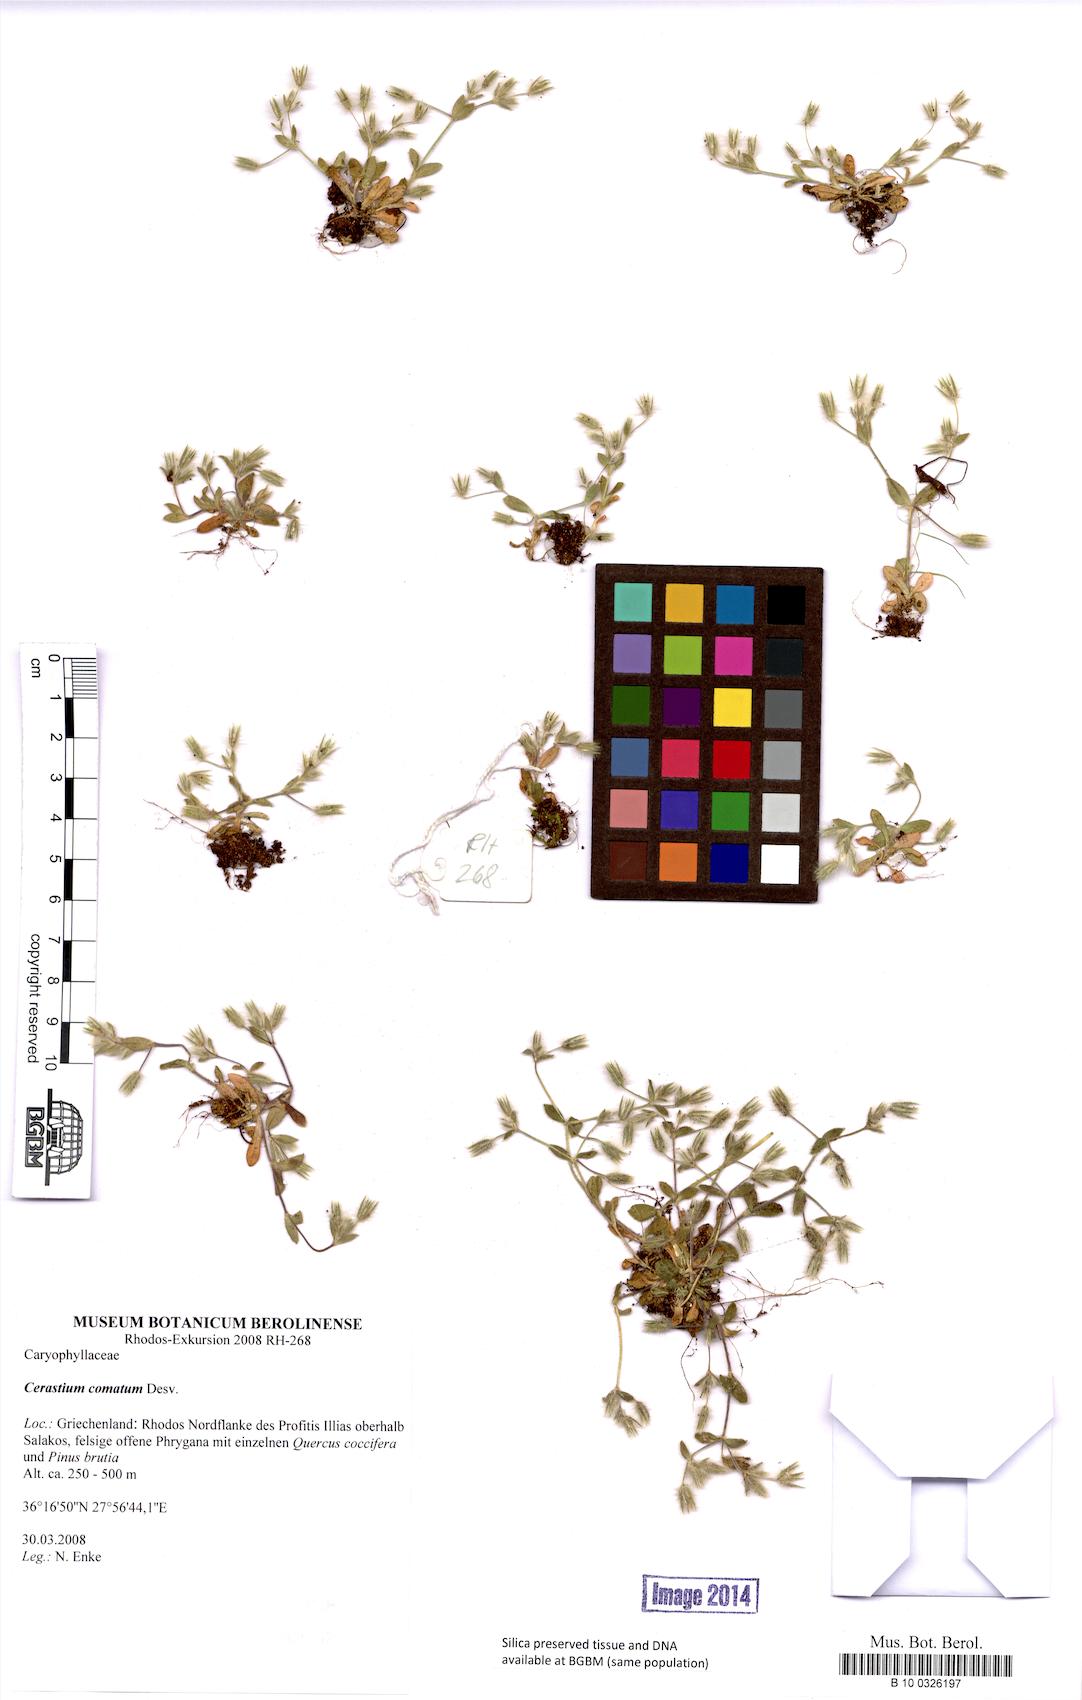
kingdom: Plantae
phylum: Tracheophyta
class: Magnoliopsida
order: Caryophyllales
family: Caryophyllaceae
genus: Cerastium
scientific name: Cerastium comatum
